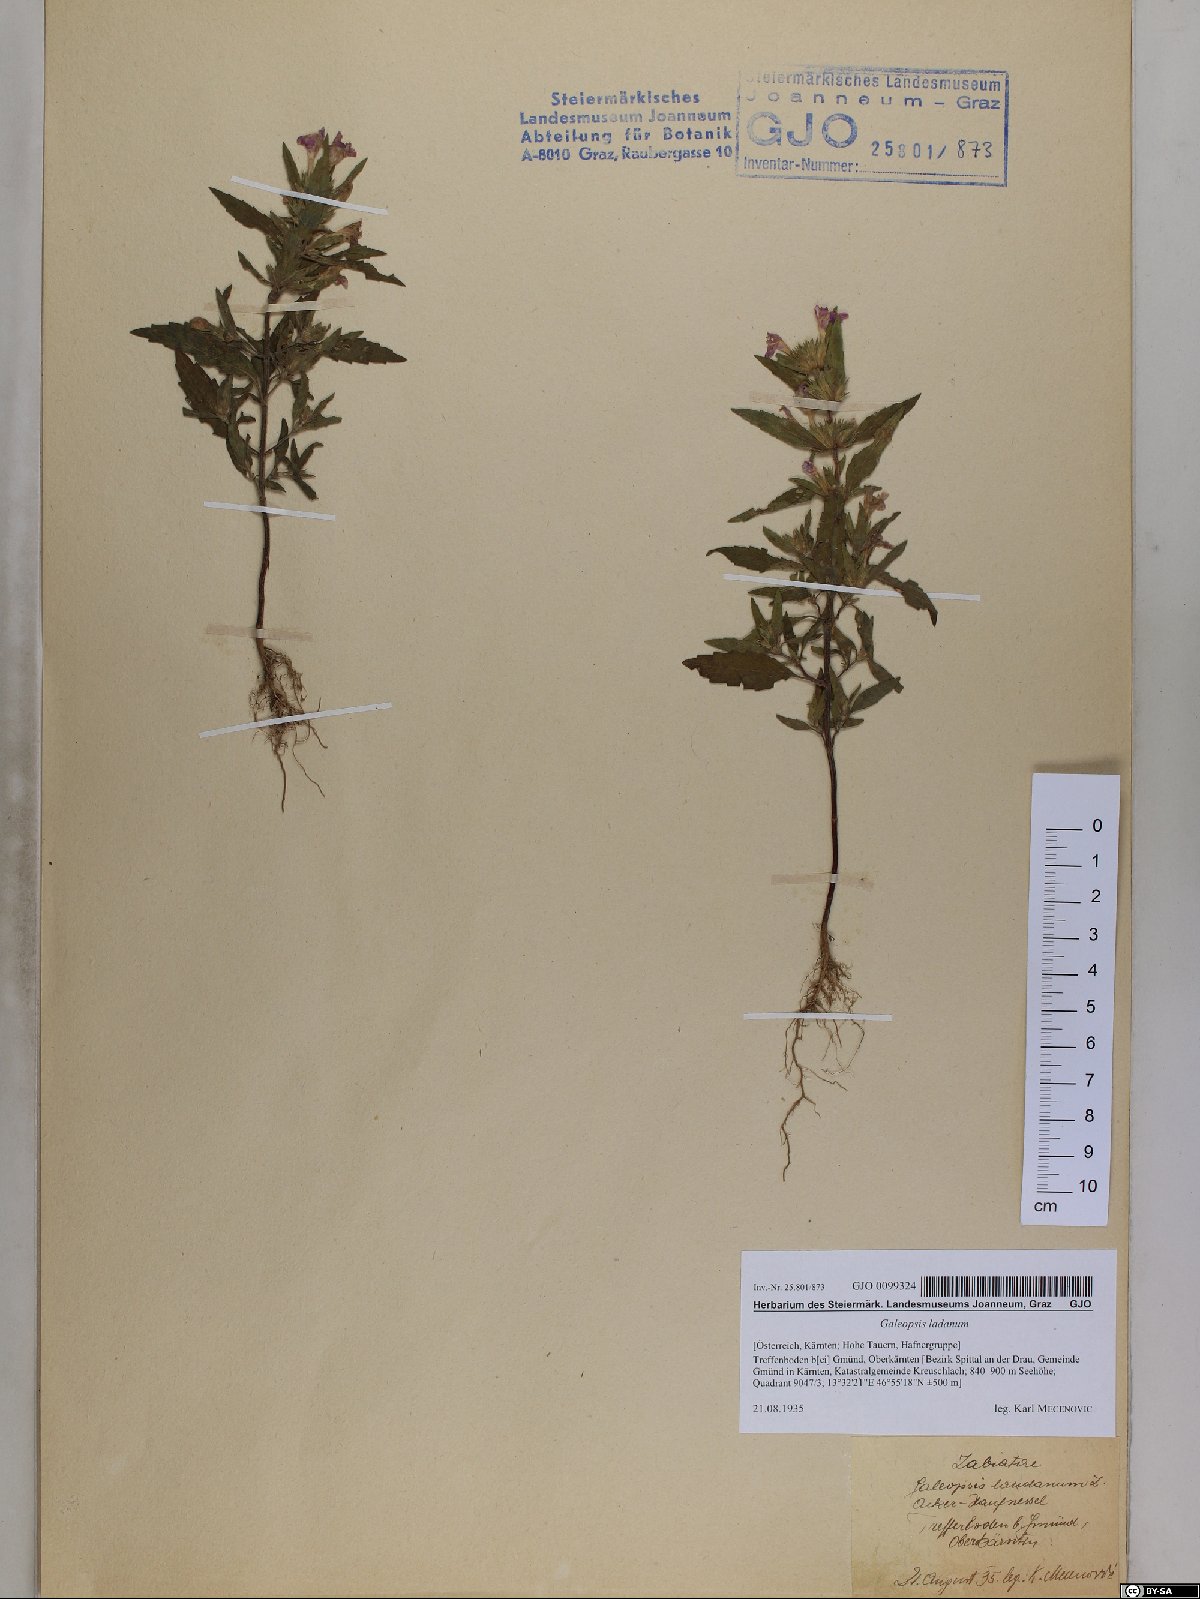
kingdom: Plantae
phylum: Tracheophyta
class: Magnoliopsida
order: Lamiales
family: Lamiaceae
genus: Galeopsis
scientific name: Galeopsis ladanum
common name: Broad-leaved hemp-nettle
